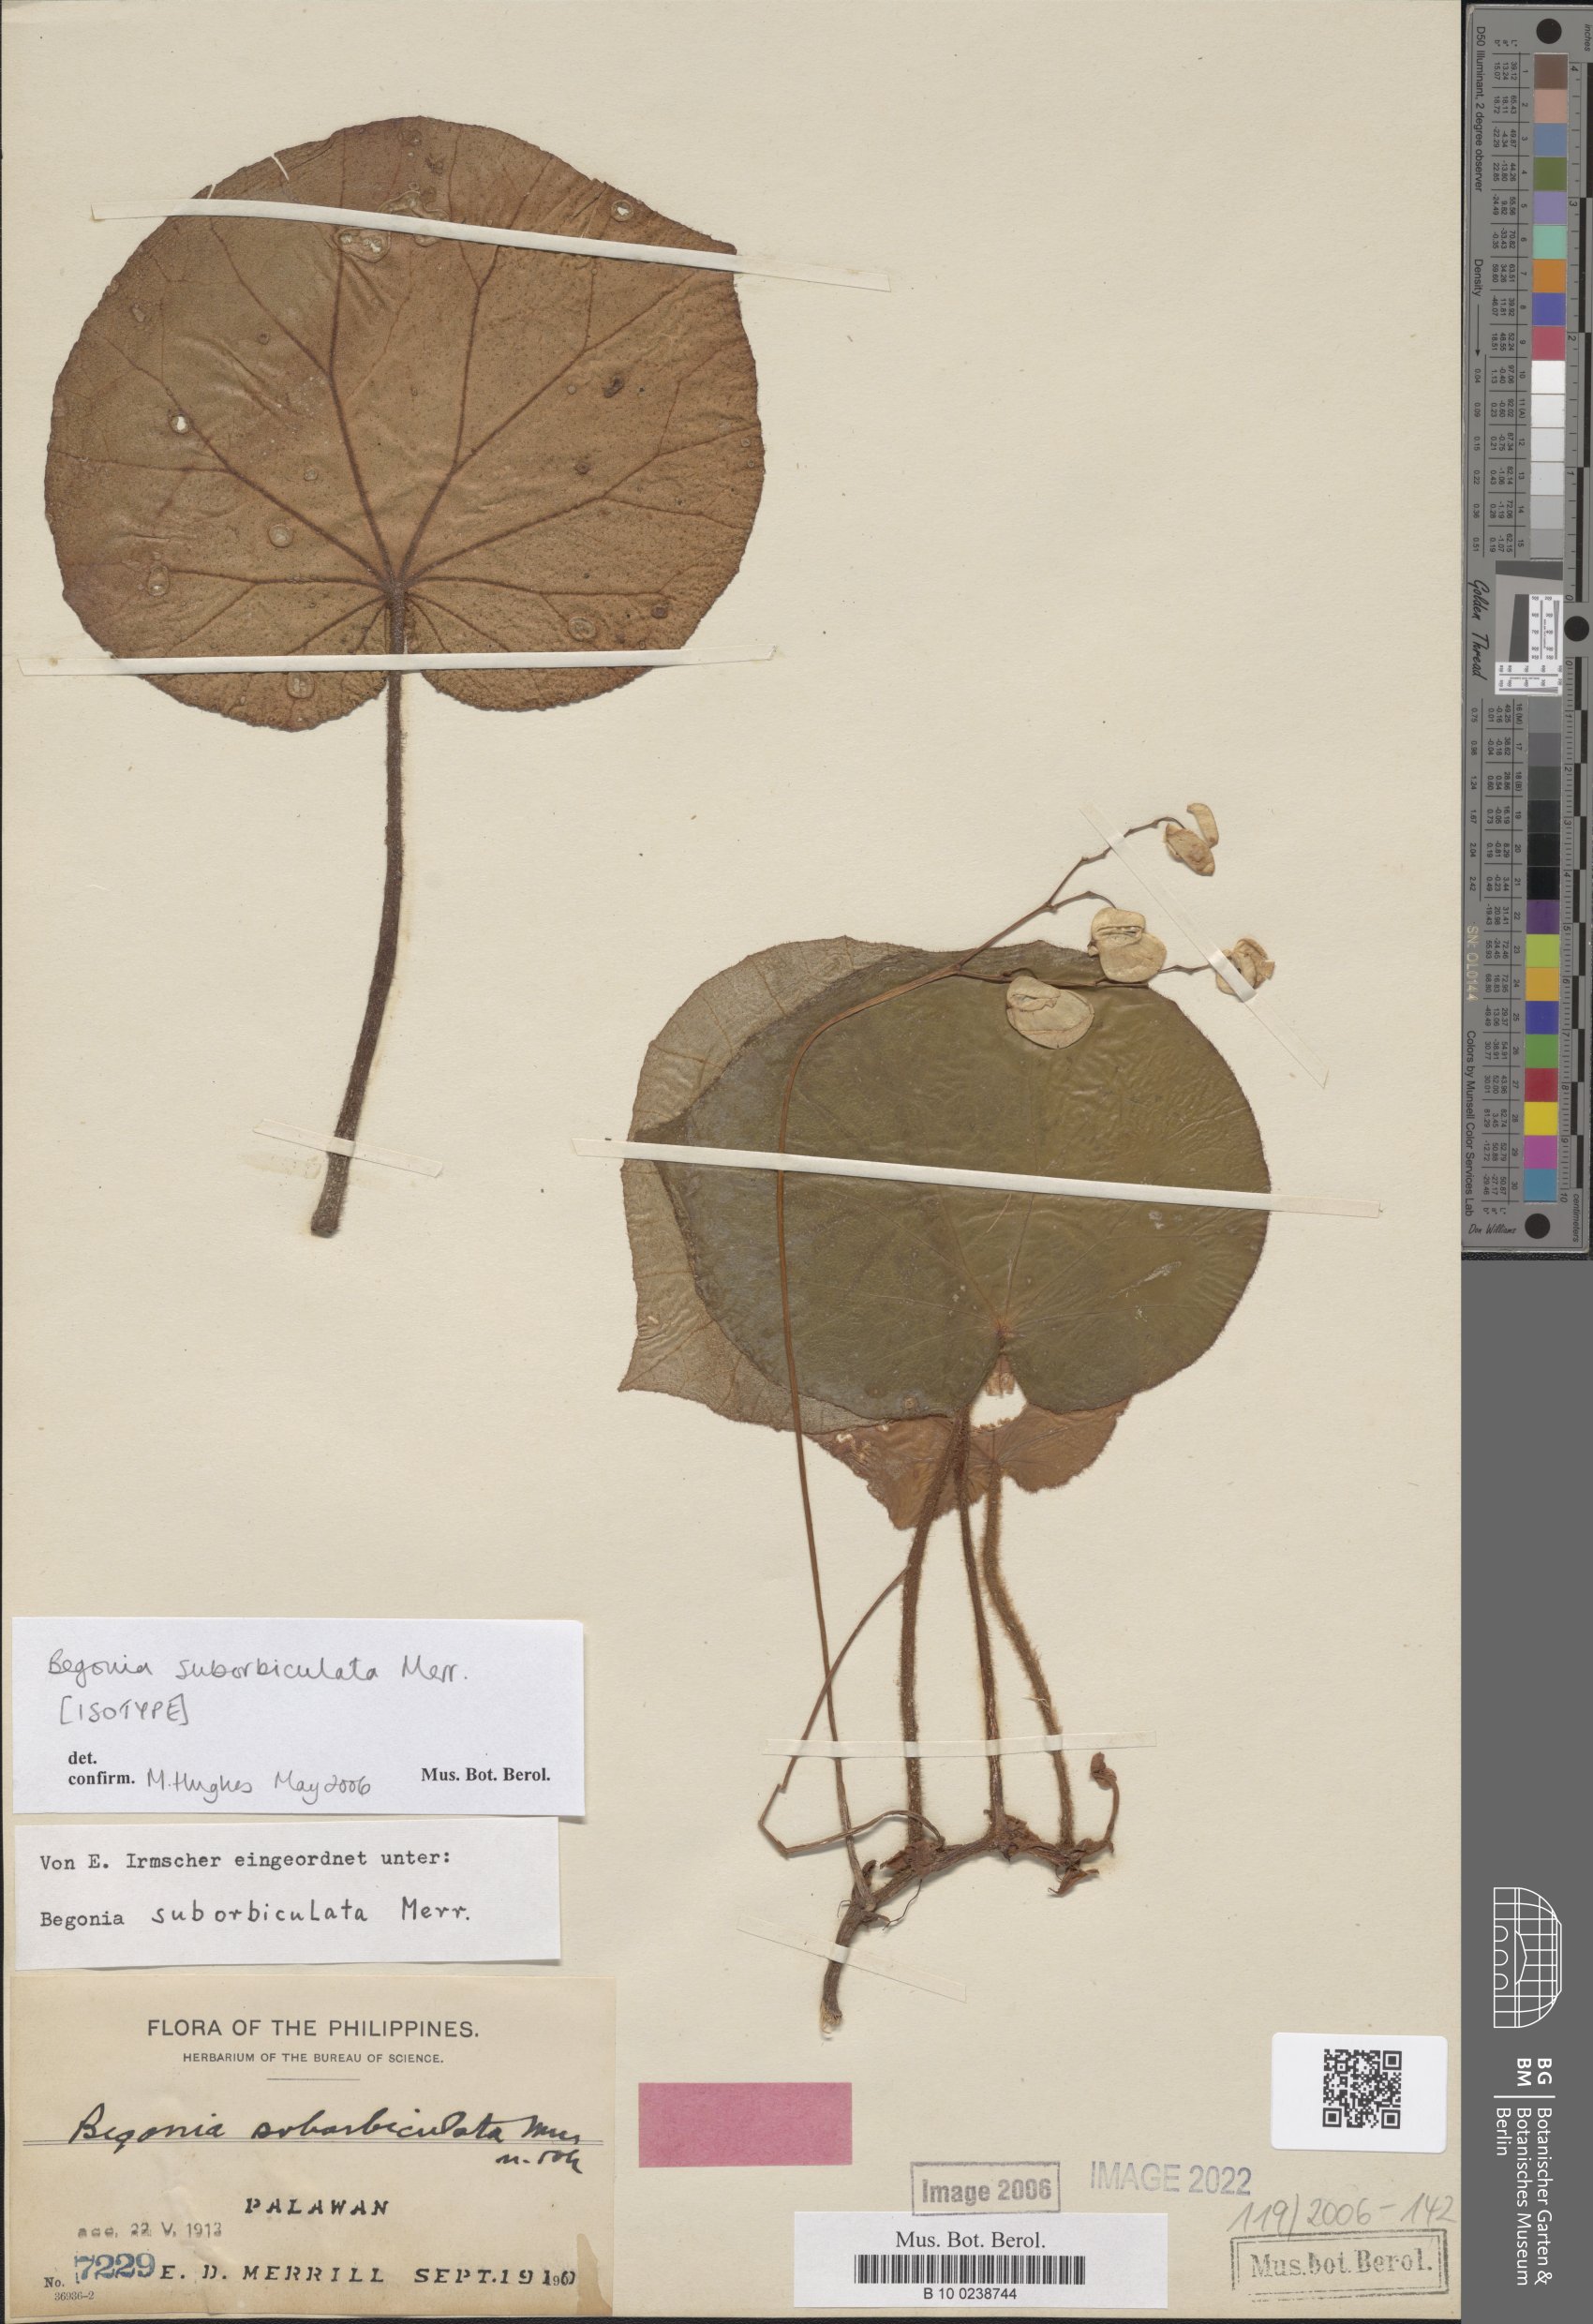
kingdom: Plantae
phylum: Tracheophyta
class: Magnoliopsida
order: Cucurbitales
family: Begoniaceae
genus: Begonia
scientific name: Begonia suborbiculata
